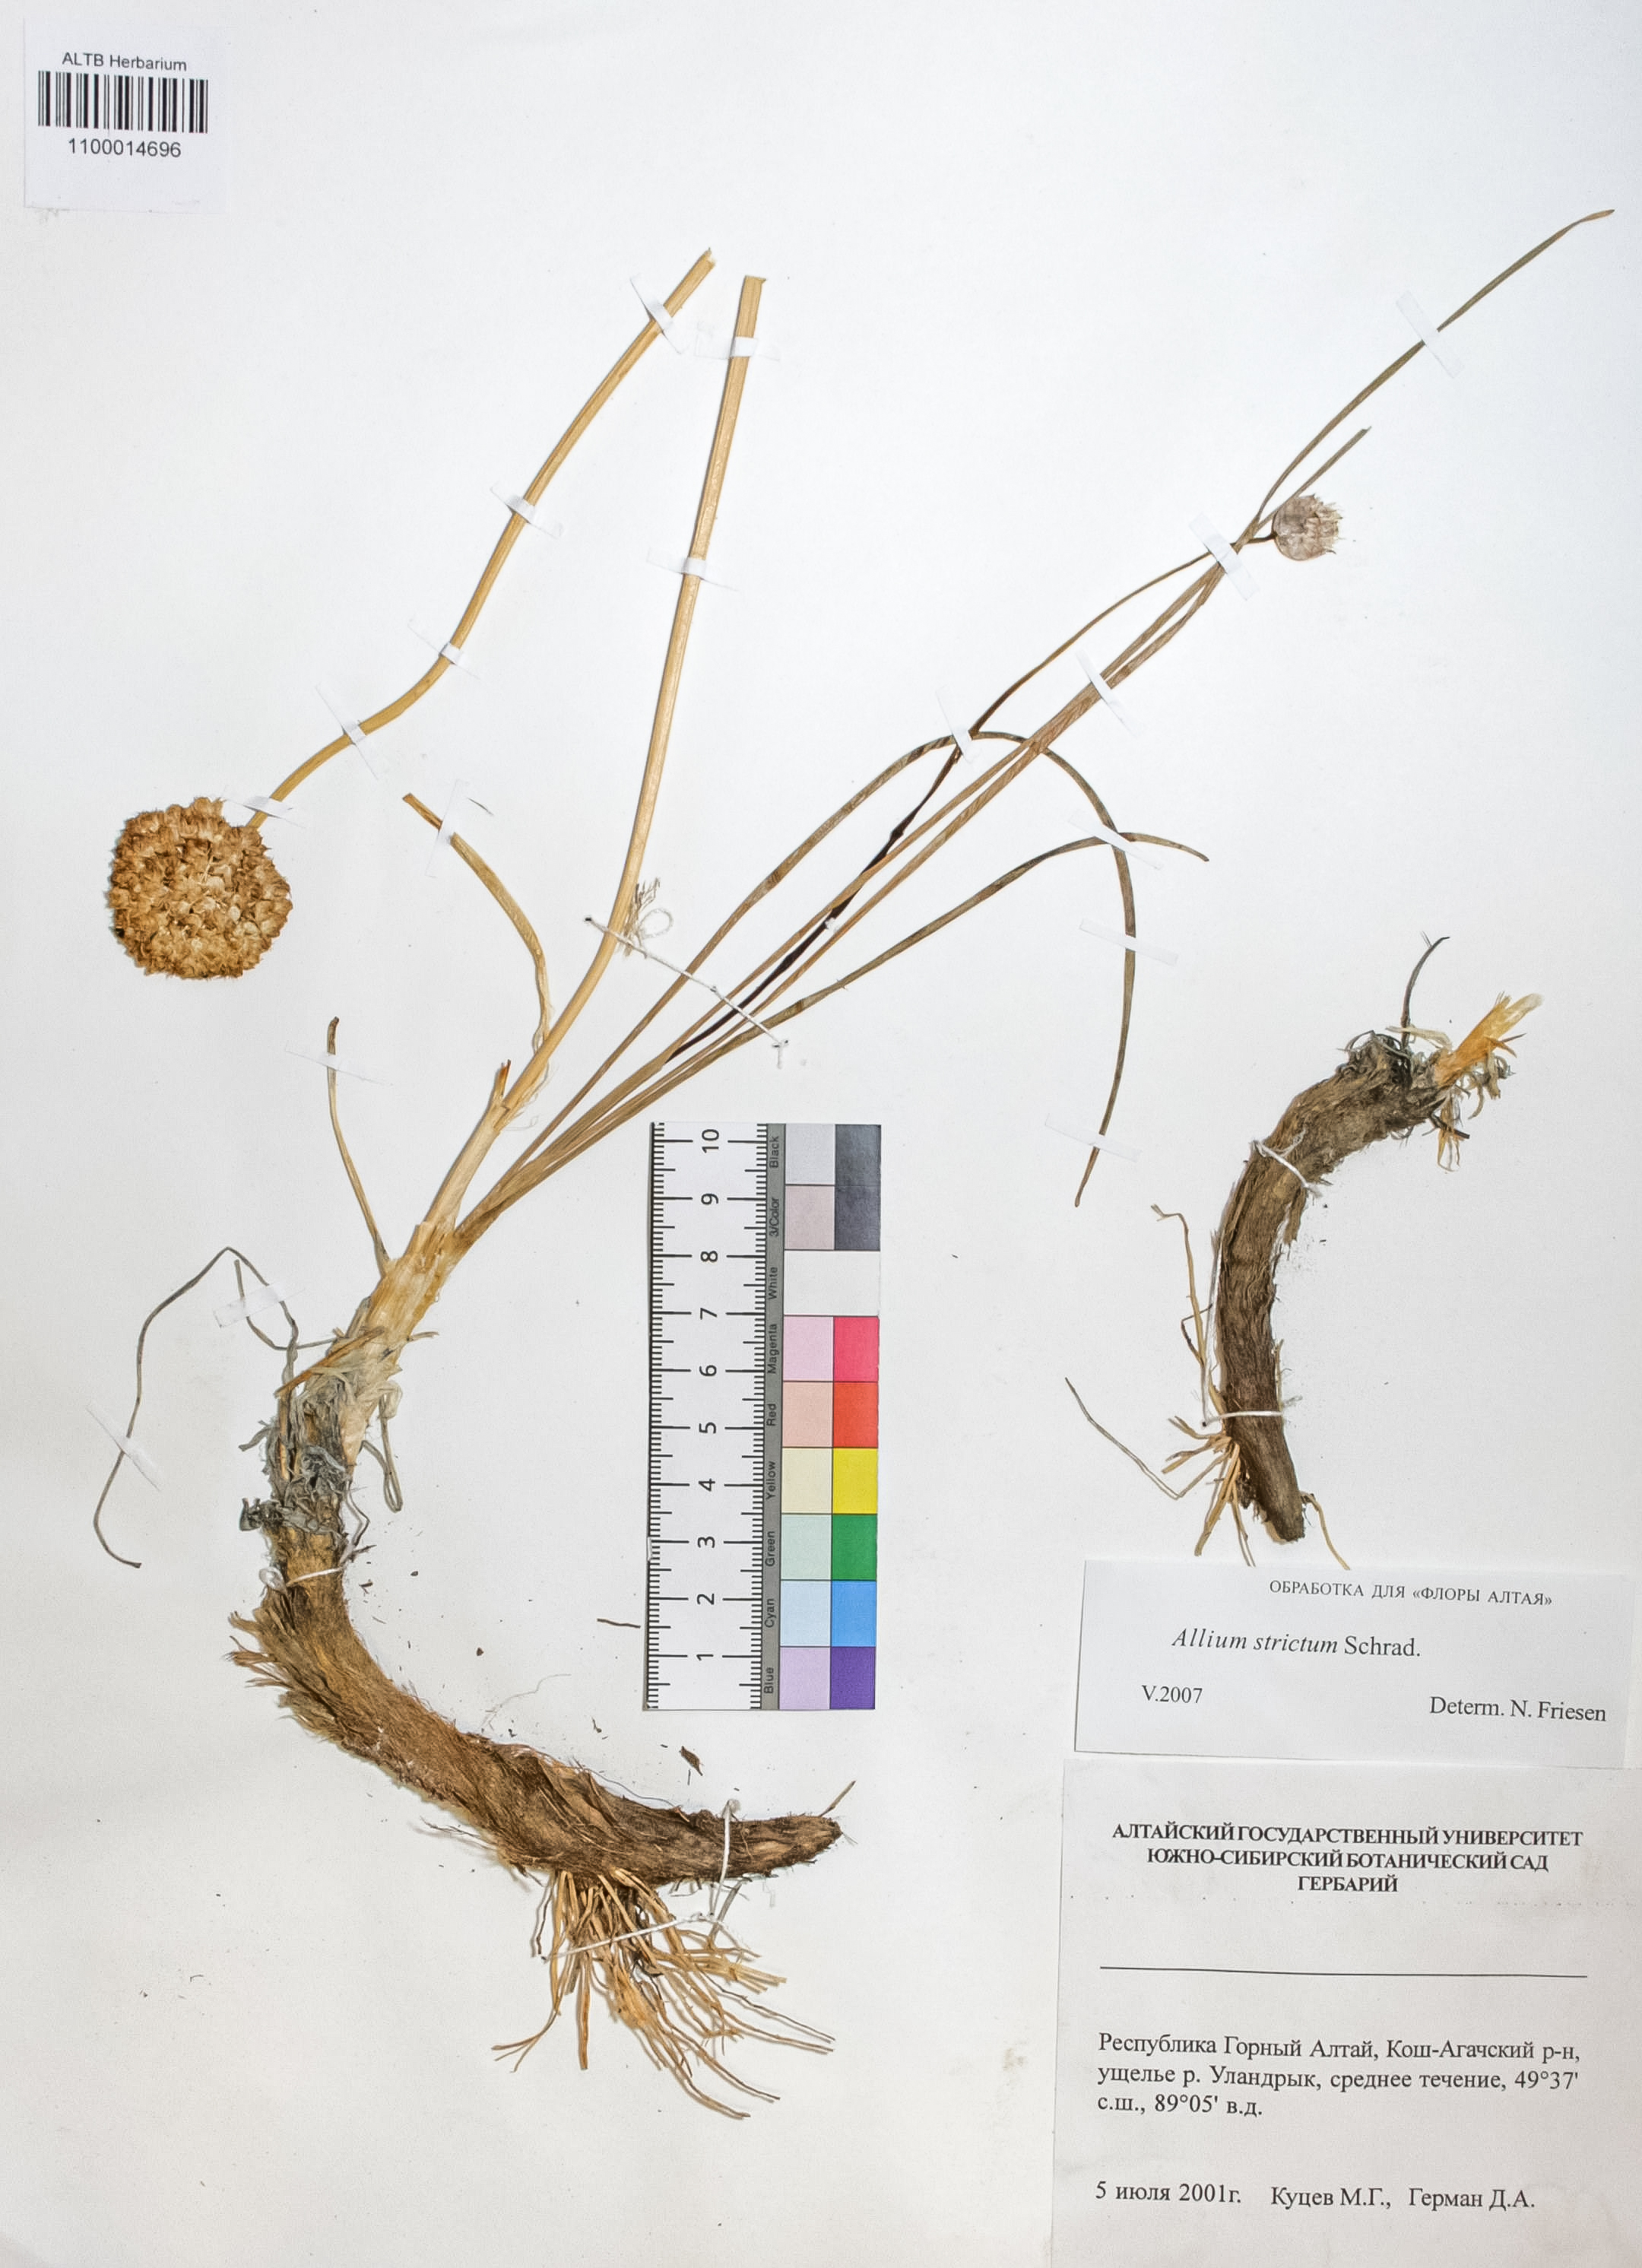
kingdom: Plantae
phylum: Tracheophyta
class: Liliopsida
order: Asparagales
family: Amaryllidaceae
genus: Allium
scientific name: Allium strictum
